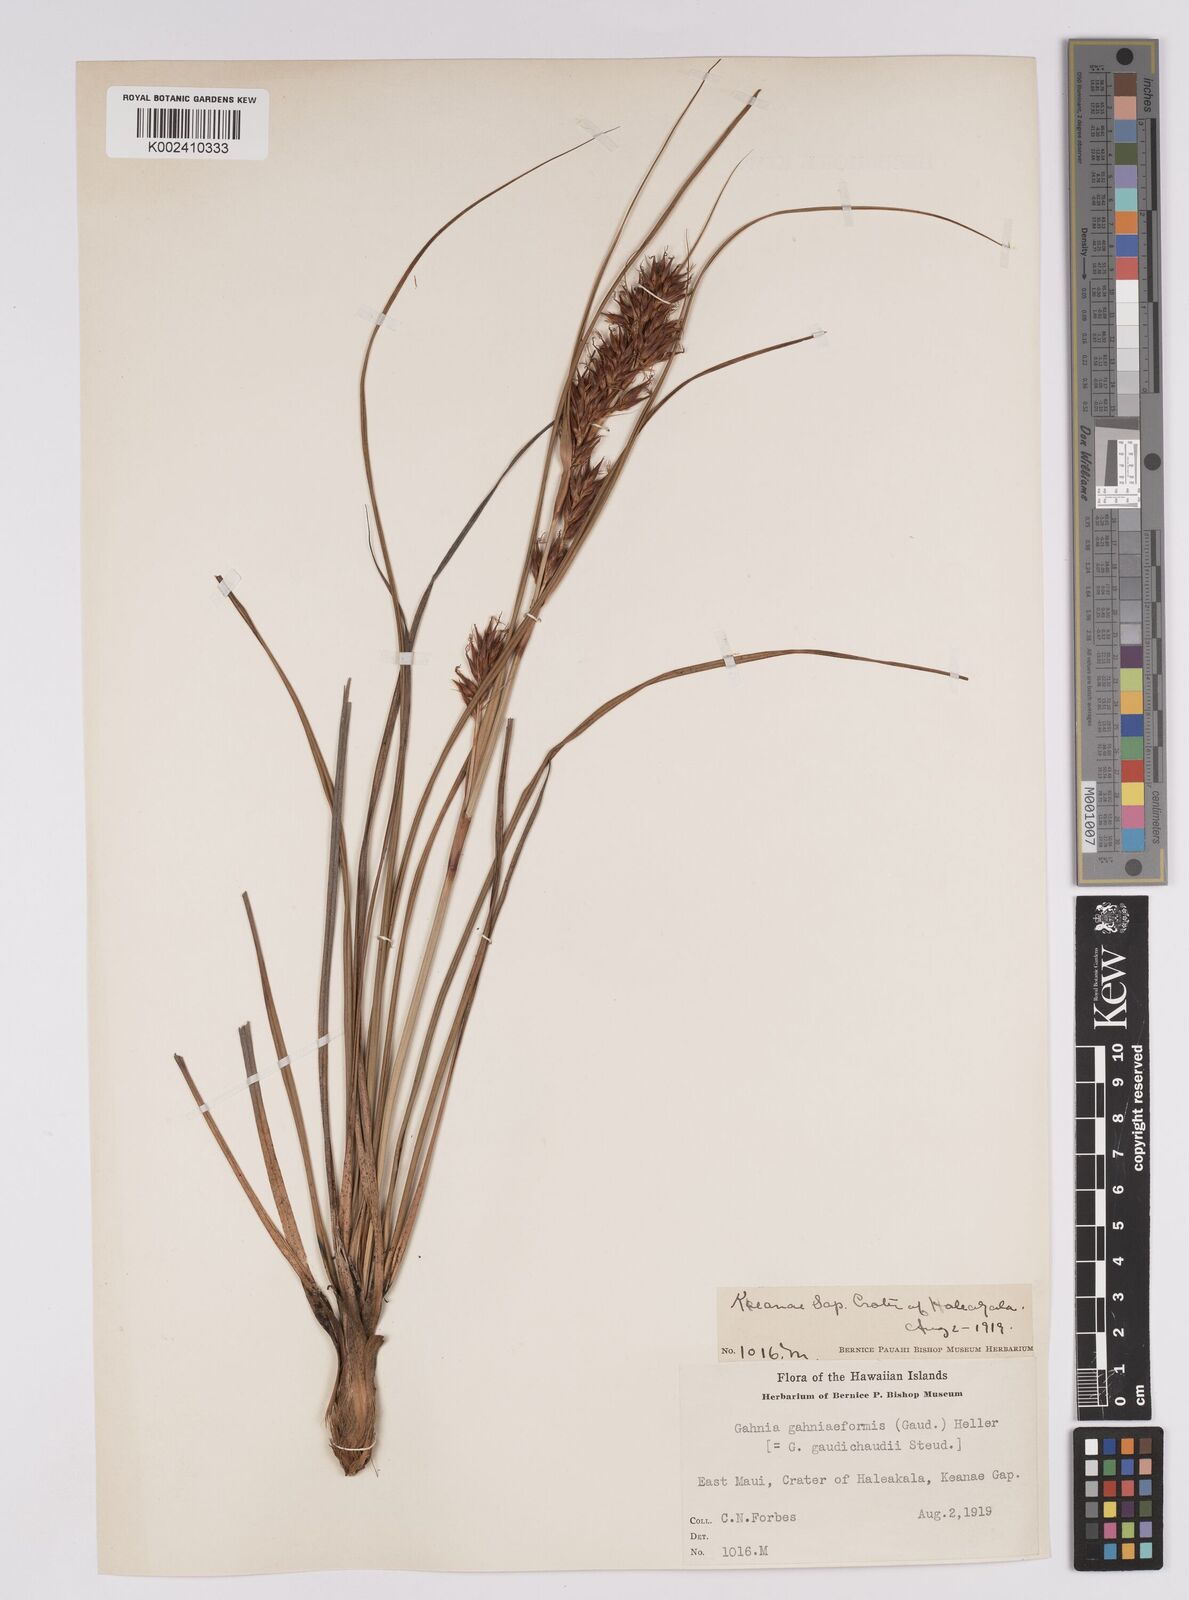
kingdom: Plantae
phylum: Tracheophyta
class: Liliopsida
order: Poales
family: Cyperaceae
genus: Morelotia
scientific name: Morelotia gahniiformis
